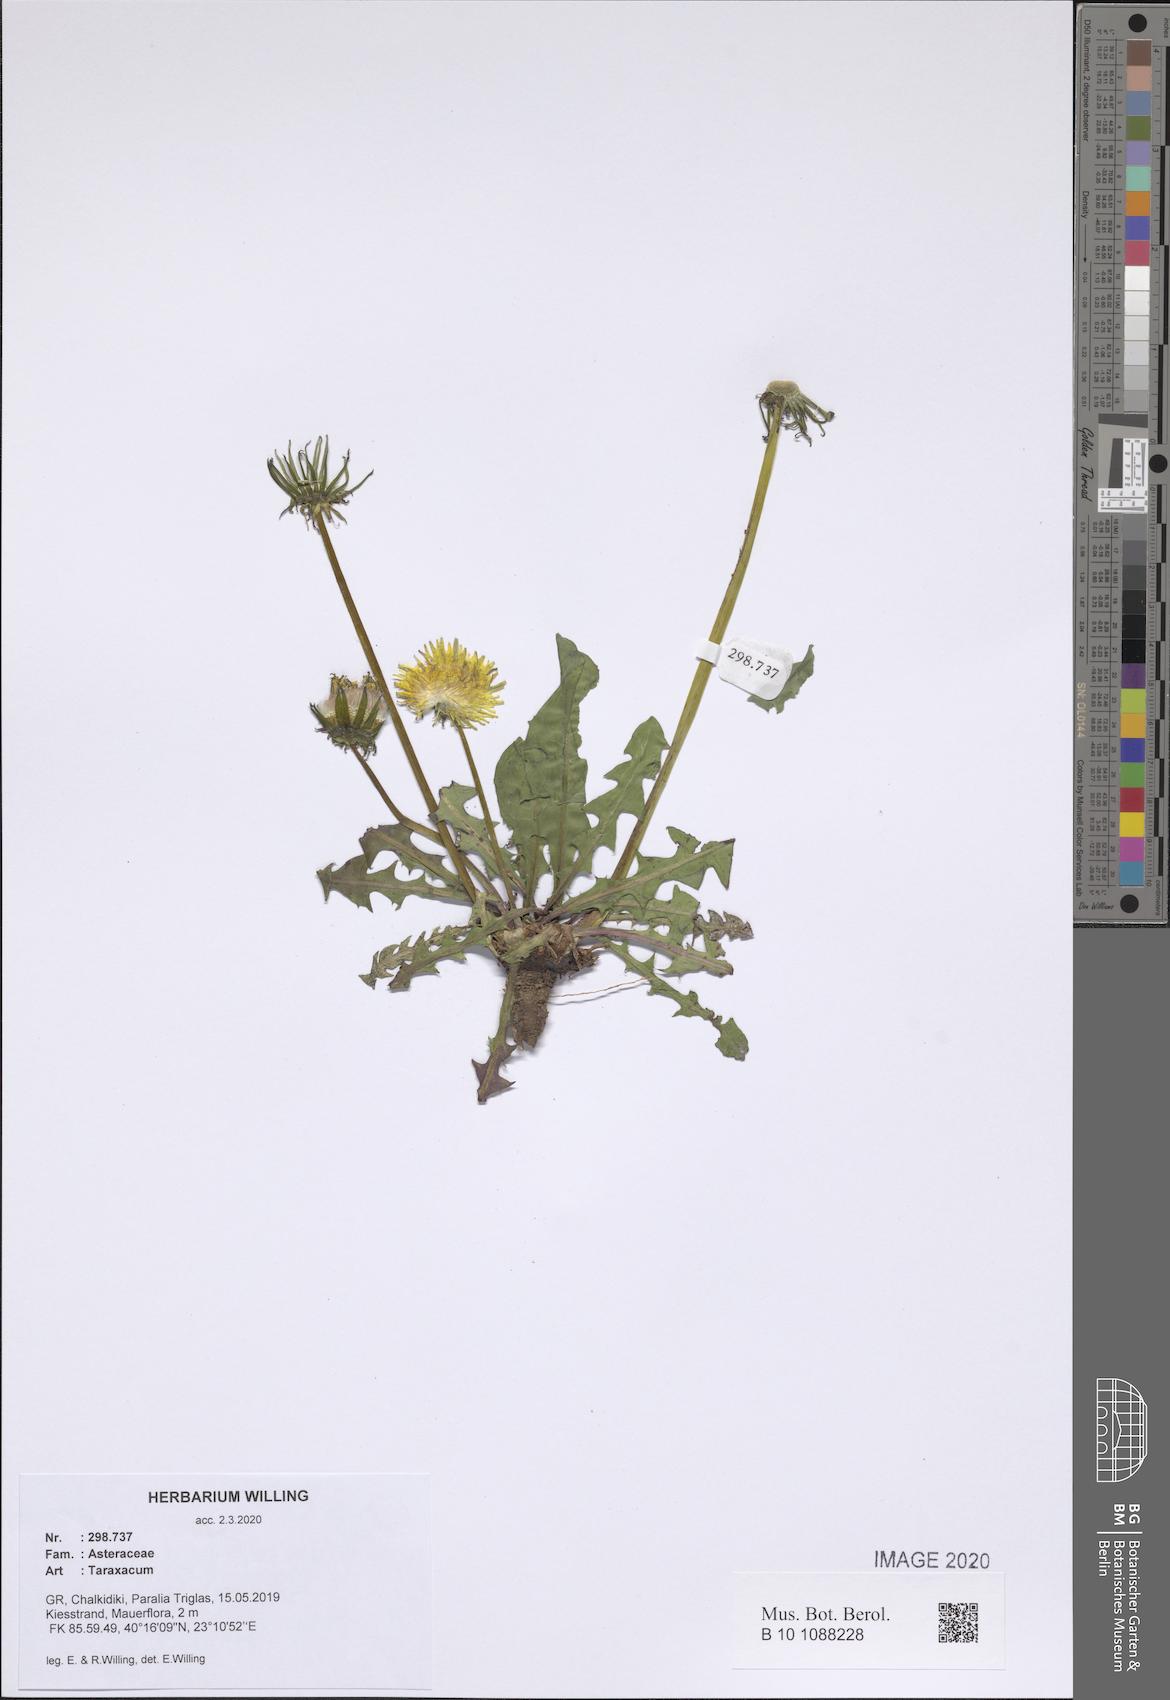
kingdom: Plantae
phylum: Tracheophyta
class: Magnoliopsida
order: Asterales
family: Asteraceae
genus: Taraxacum
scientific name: Taraxacum
